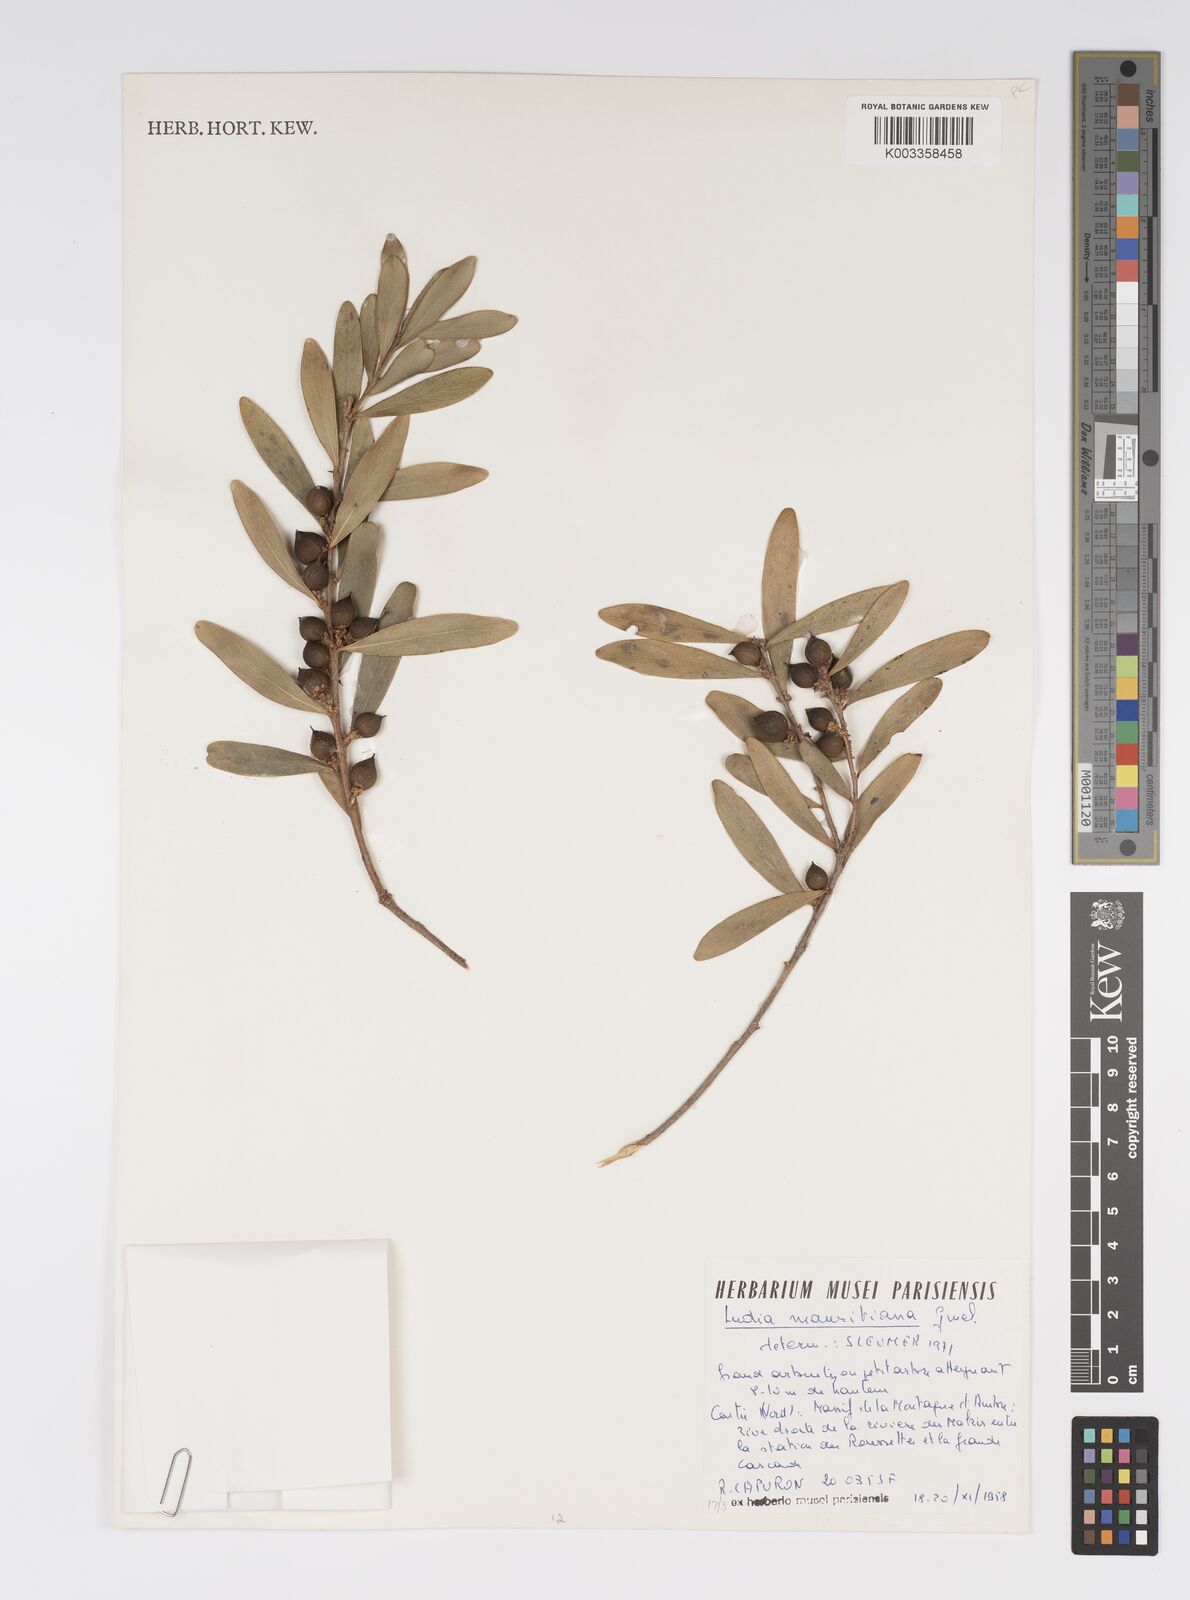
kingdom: Plantae
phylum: Tracheophyta
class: Magnoliopsida
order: Malpighiales
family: Salicaceae
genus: Ludia
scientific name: Ludia mauritiana
